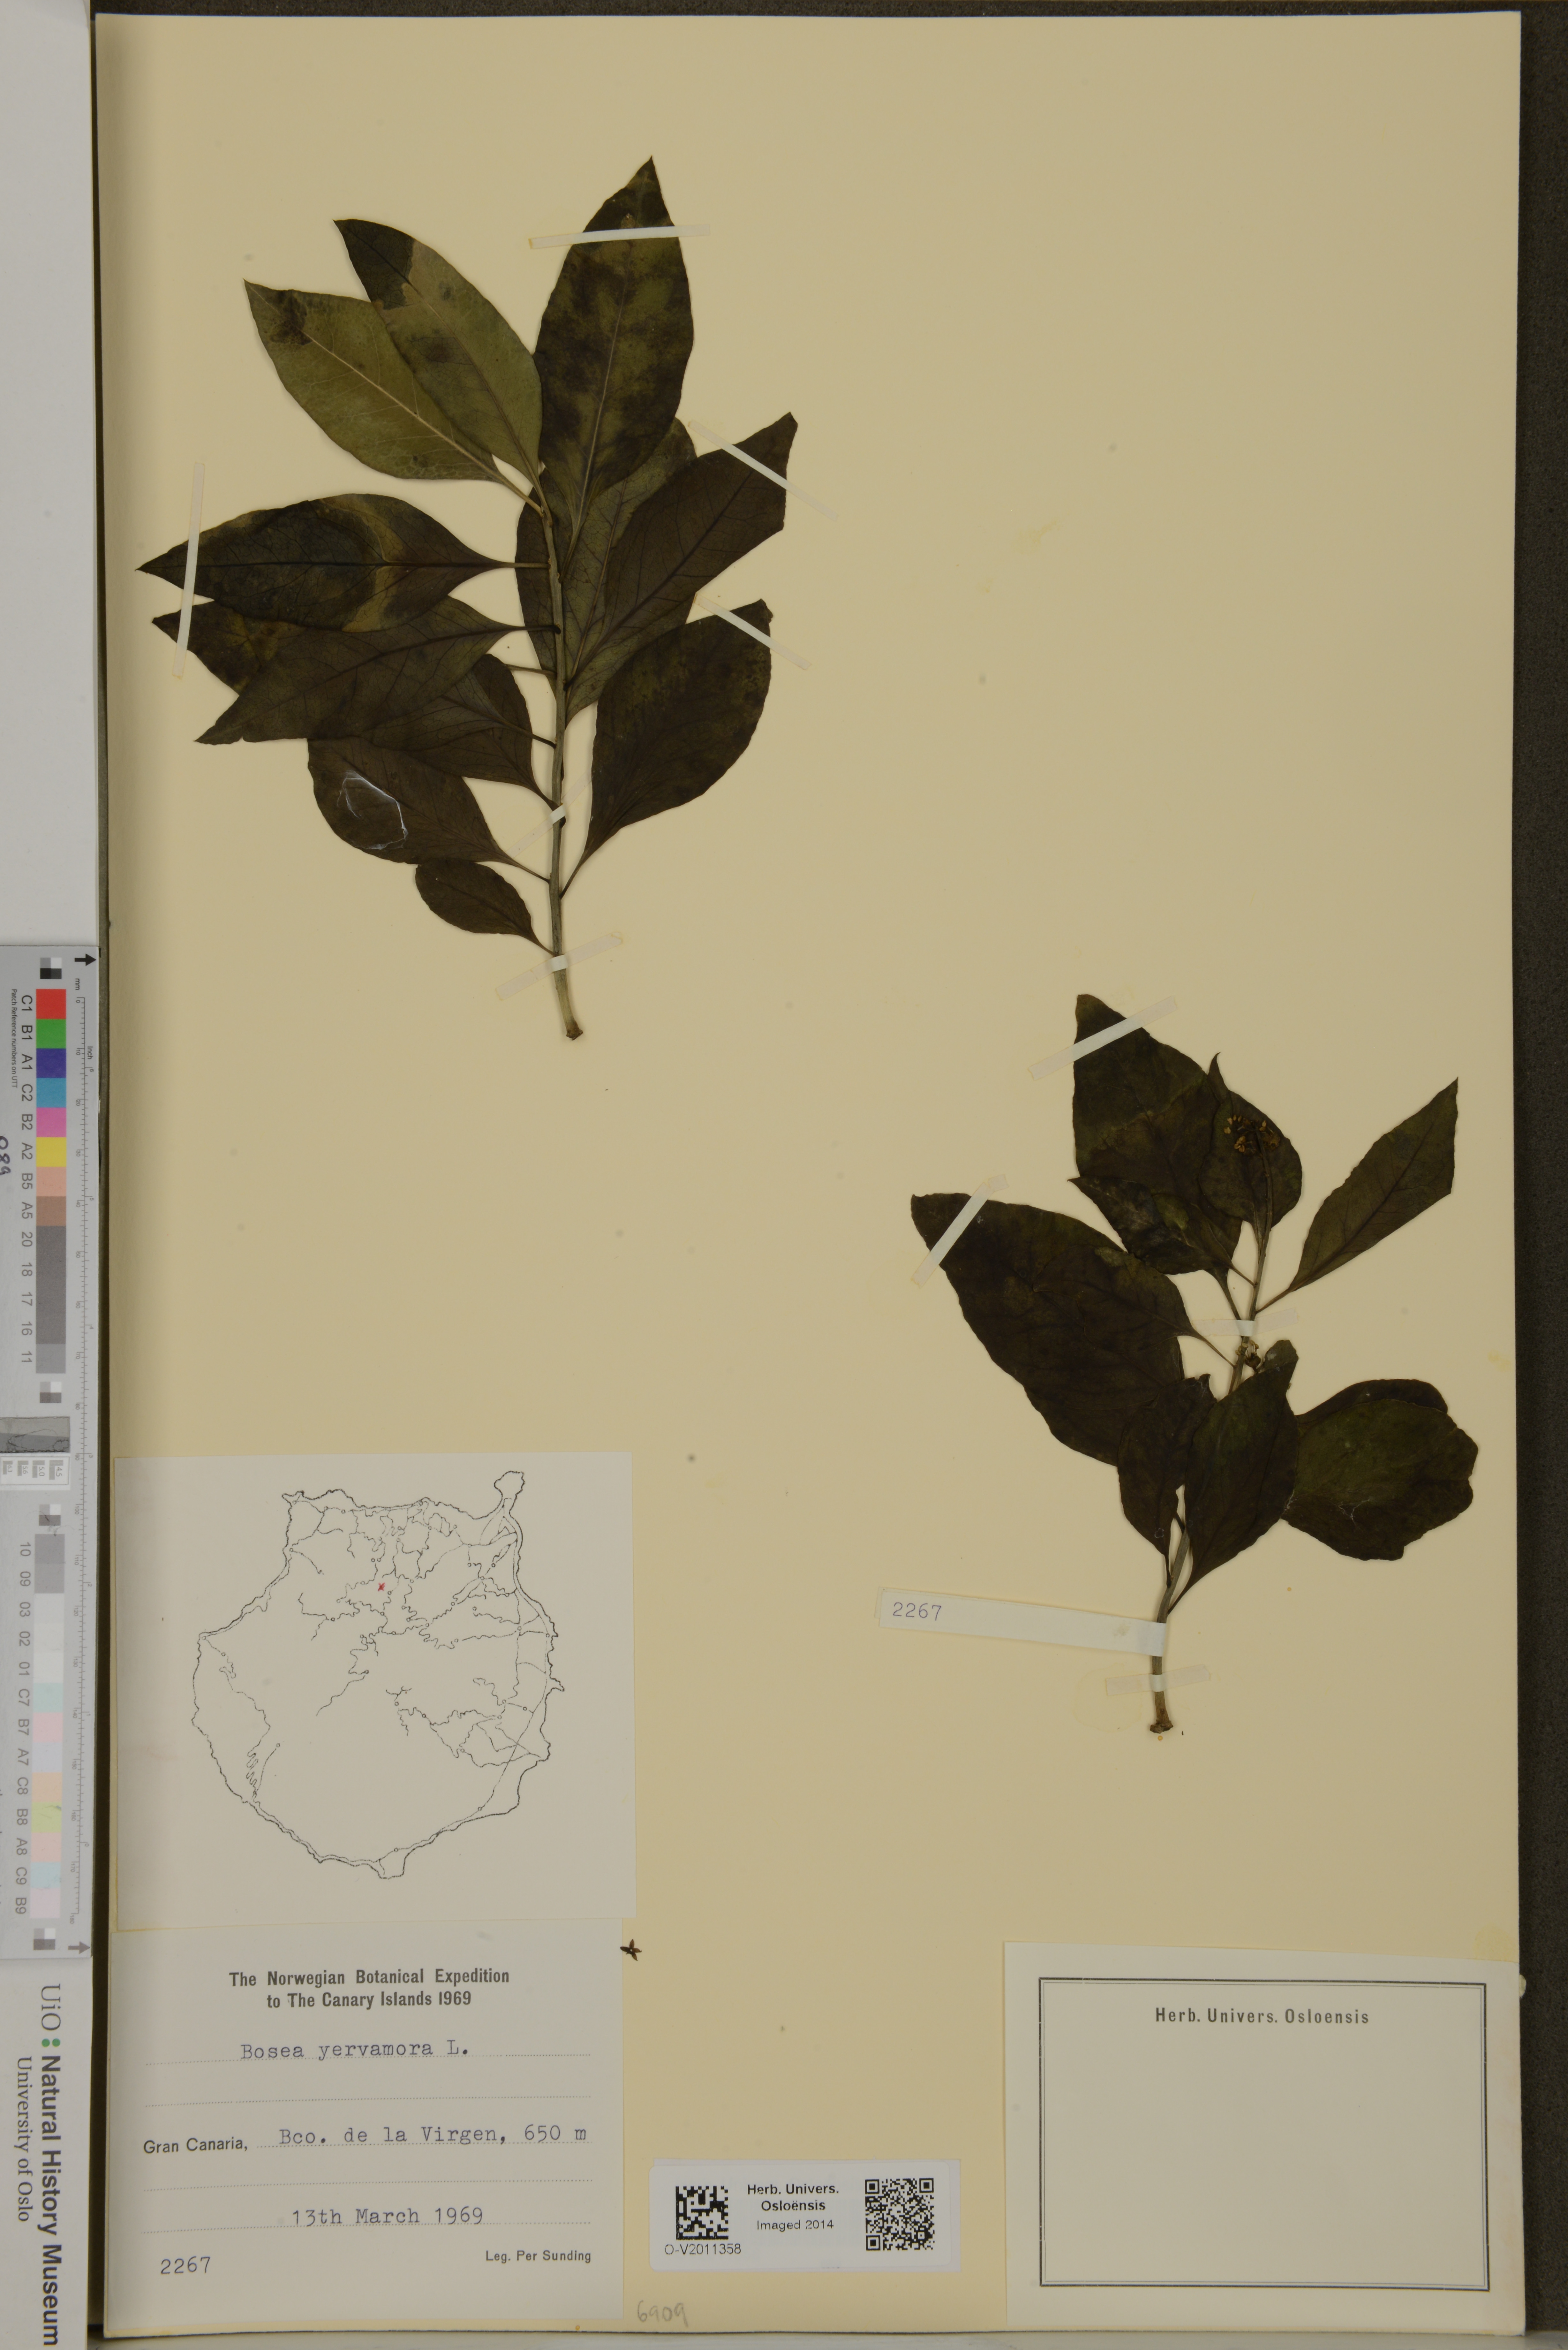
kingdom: Plantae
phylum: Tracheophyta
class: Magnoliopsida
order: Caryophyllales
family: Amaranthaceae
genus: Bosea
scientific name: Bosea yervamora
